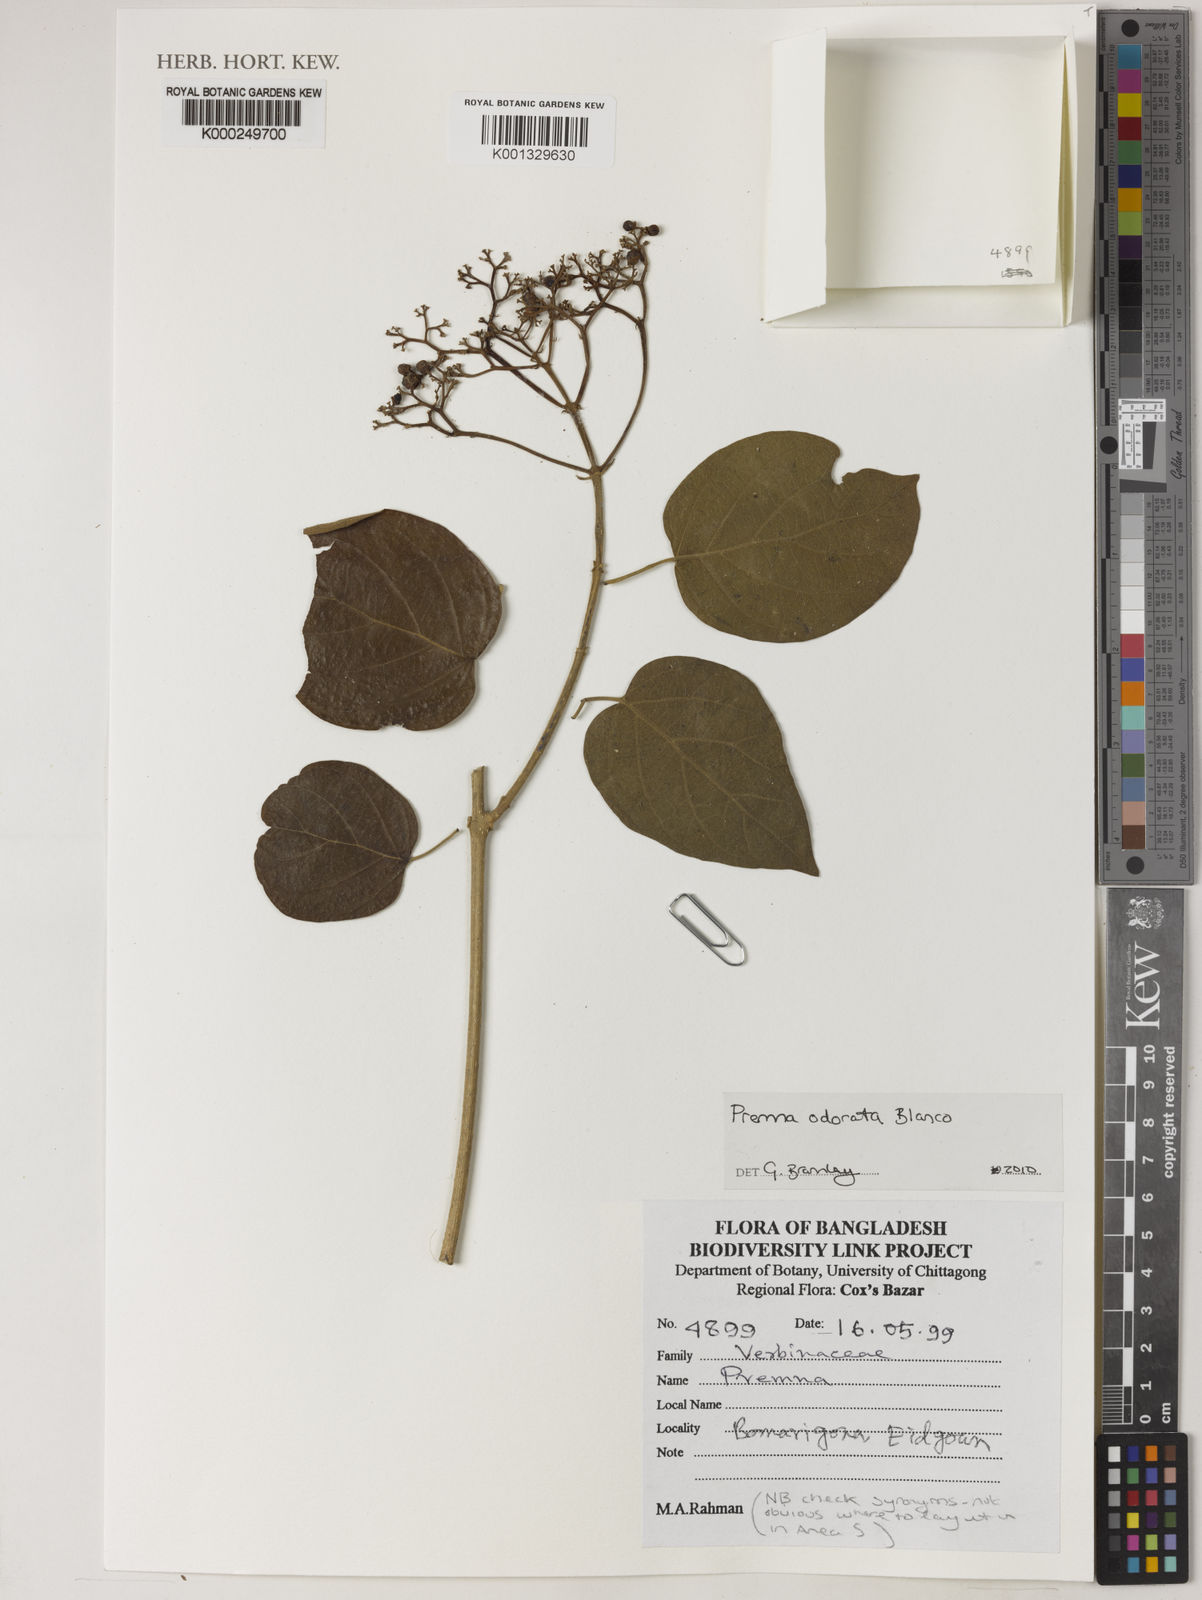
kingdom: Plantae
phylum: Tracheophyta
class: Magnoliopsida
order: Lamiales
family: Lamiaceae
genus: Premna
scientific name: Premna odorata
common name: Fragrant premna
